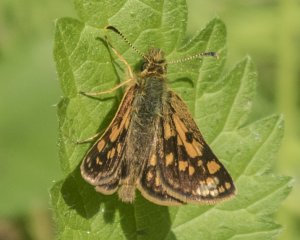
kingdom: Animalia
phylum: Arthropoda
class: Insecta
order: Lepidoptera
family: Hesperiidae
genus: Carterocephalus
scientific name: Carterocephalus palaemon
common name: Chequered Skipper
